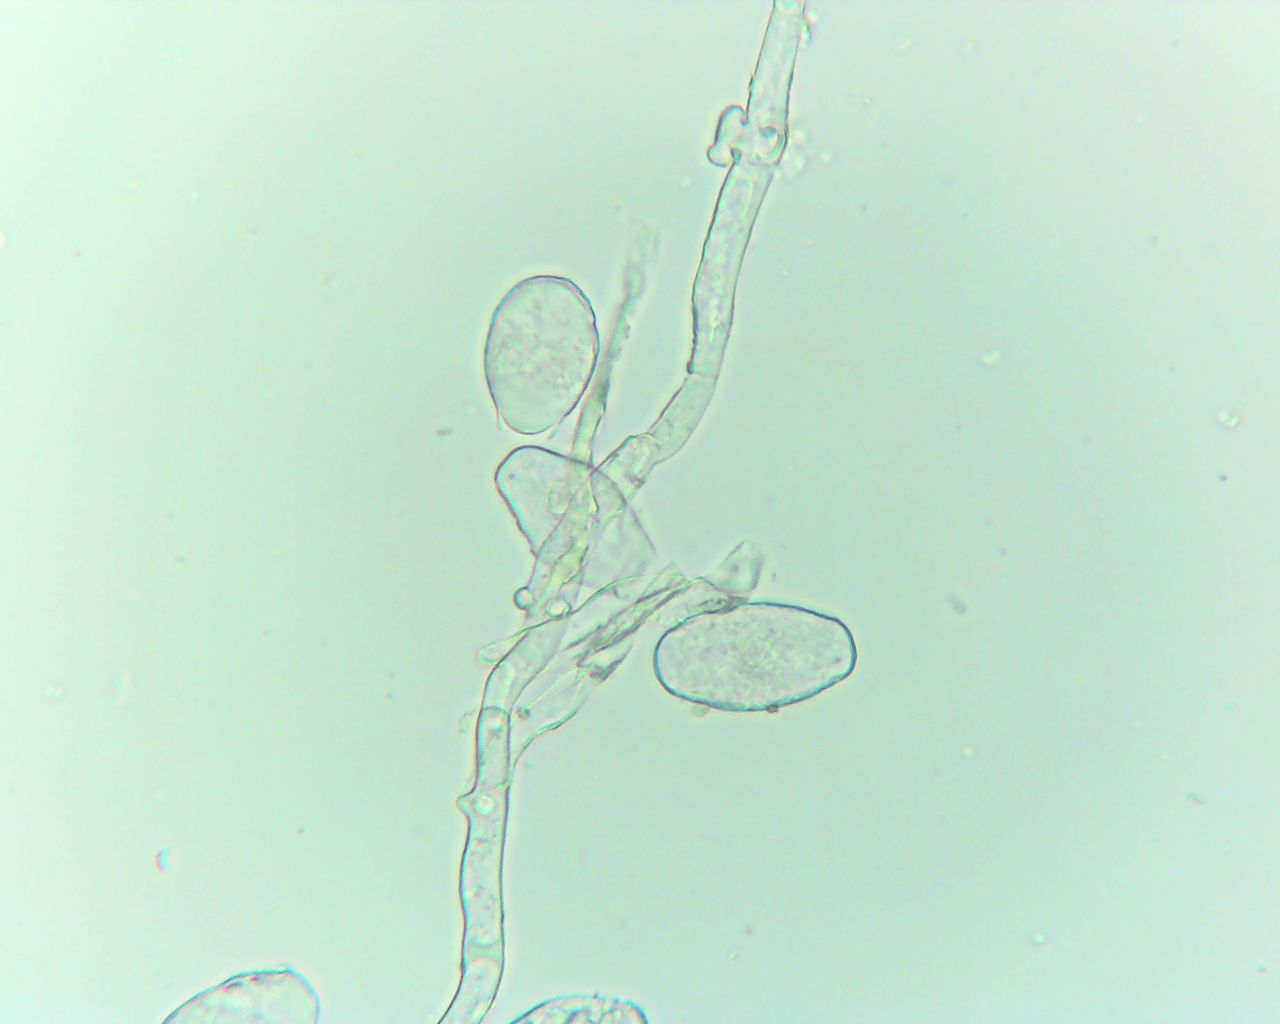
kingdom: Fungi
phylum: Ascomycota
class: Leotiomycetes
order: Helotiales
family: Erysiphaceae
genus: Erysiphe
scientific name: Erysiphe pisi
